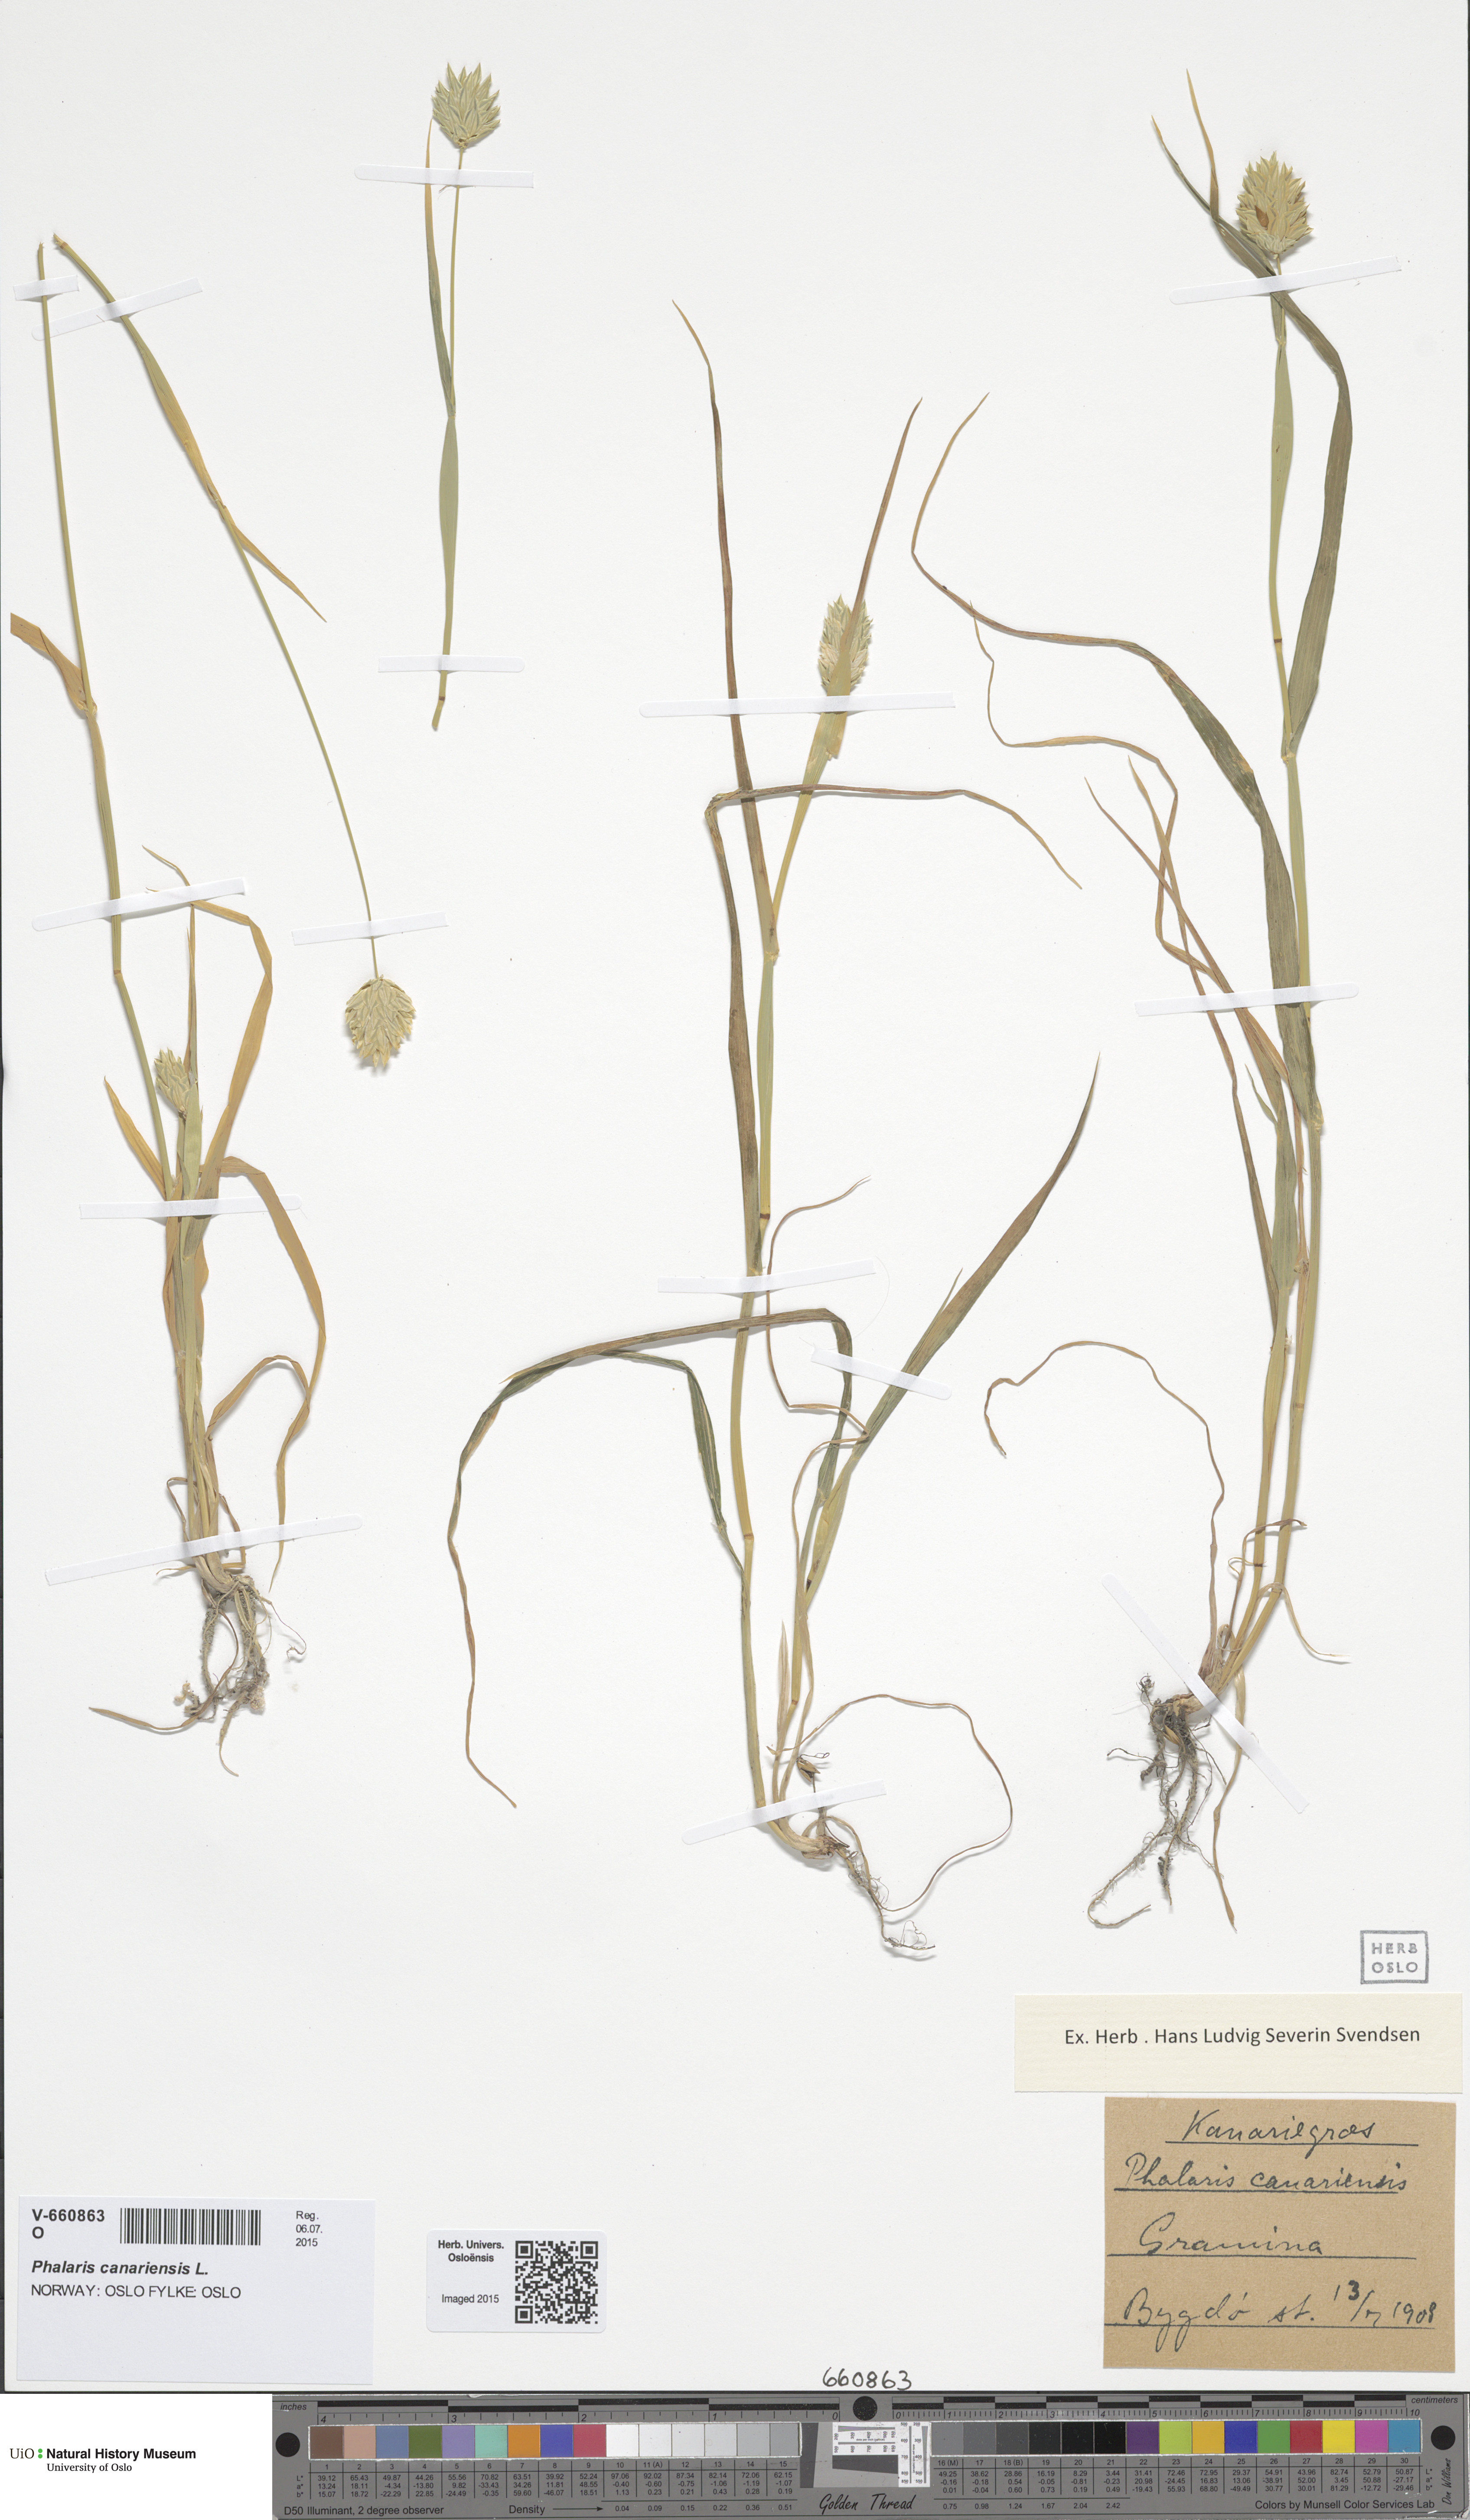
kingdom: Plantae
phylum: Tracheophyta
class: Liliopsida
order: Poales
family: Poaceae
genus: Phalaris
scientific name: Phalaris canariensis
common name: Annual canarygrass
